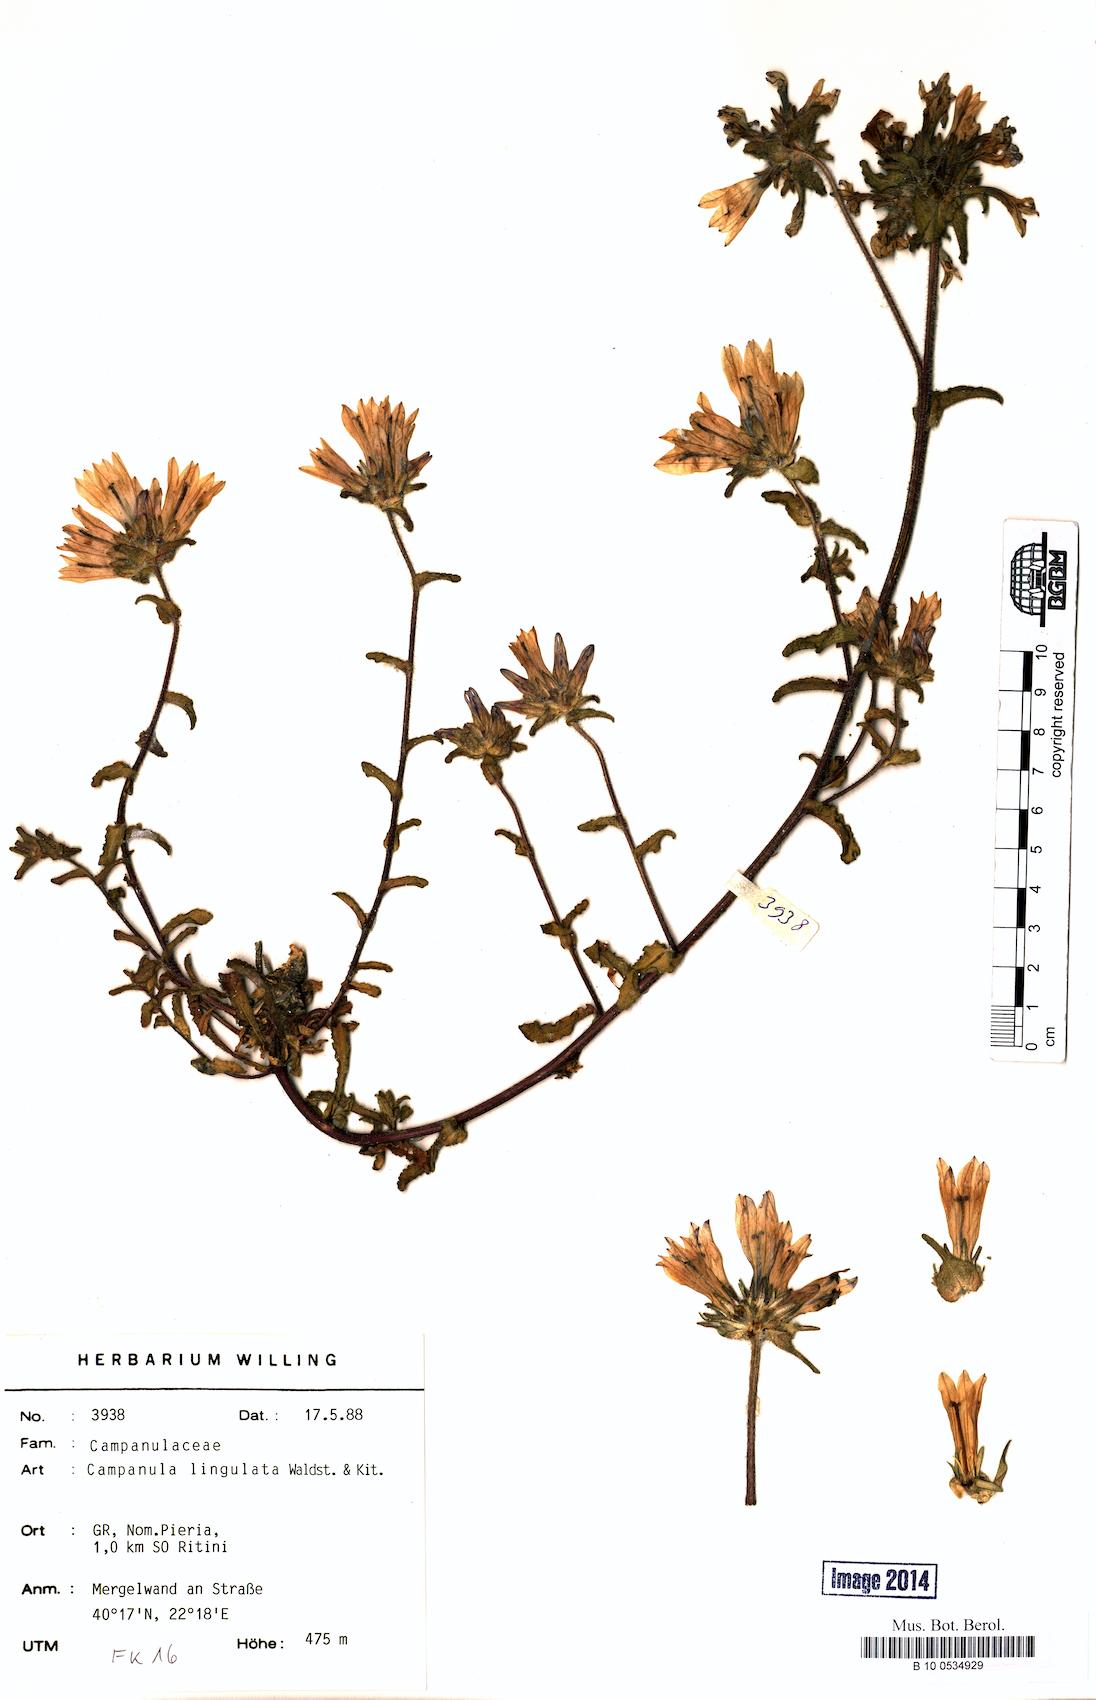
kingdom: Plantae
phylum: Tracheophyta
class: Magnoliopsida
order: Asterales
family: Campanulaceae
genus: Campanula
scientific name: Campanula lingulata
